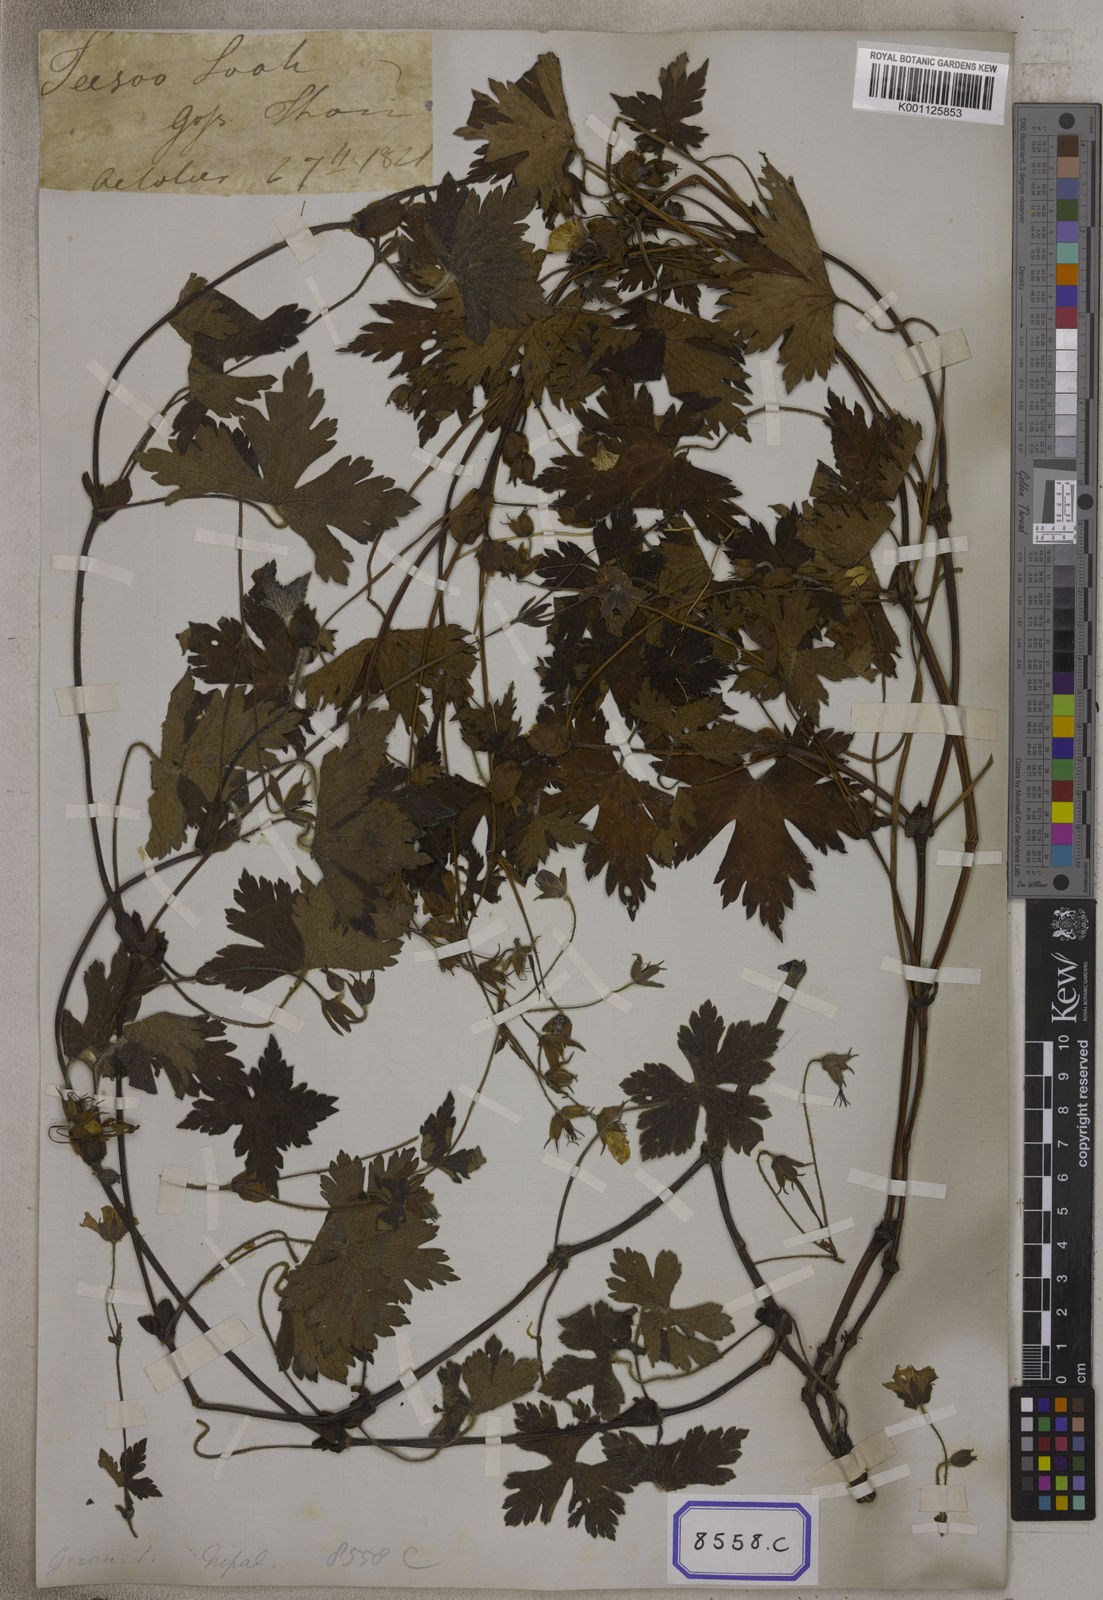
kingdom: Plantae
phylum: Tracheophyta
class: Magnoliopsida
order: Geraniales
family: Geraniaceae
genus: Geranium
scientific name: Geranium
